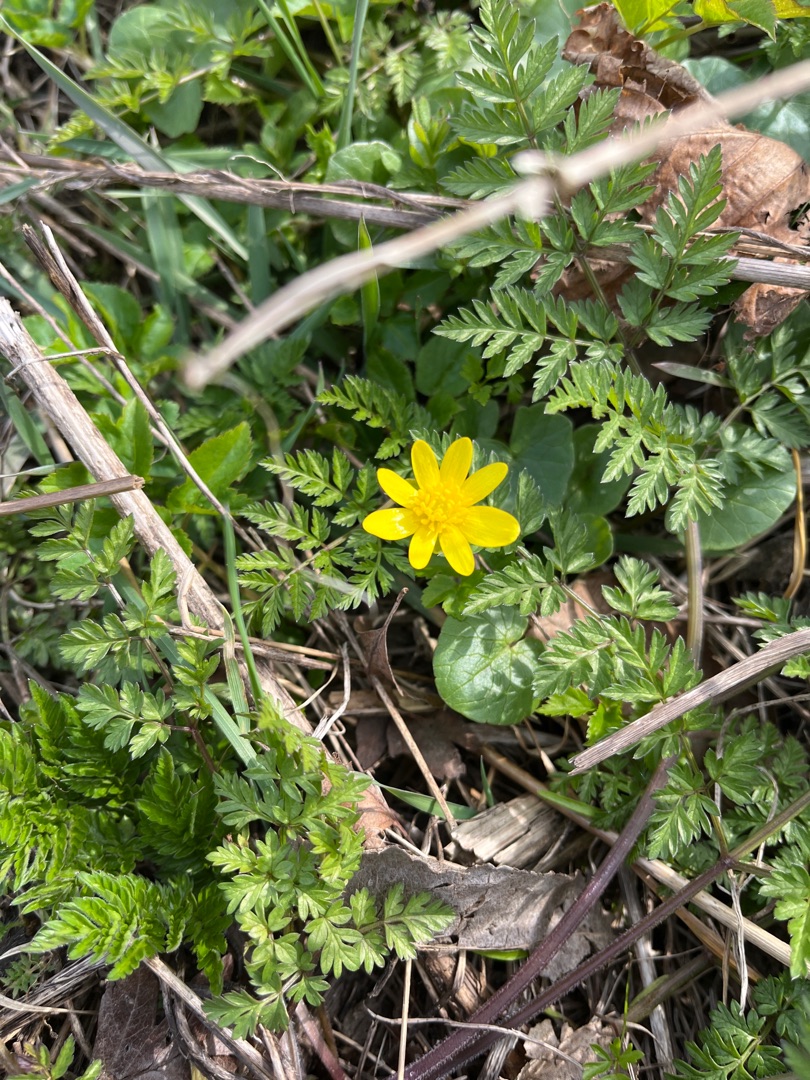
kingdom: Plantae
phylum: Tracheophyta
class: Magnoliopsida
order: Ranunculales
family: Ranunculaceae
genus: Ficaria
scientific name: Ficaria verna
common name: Vorterod
